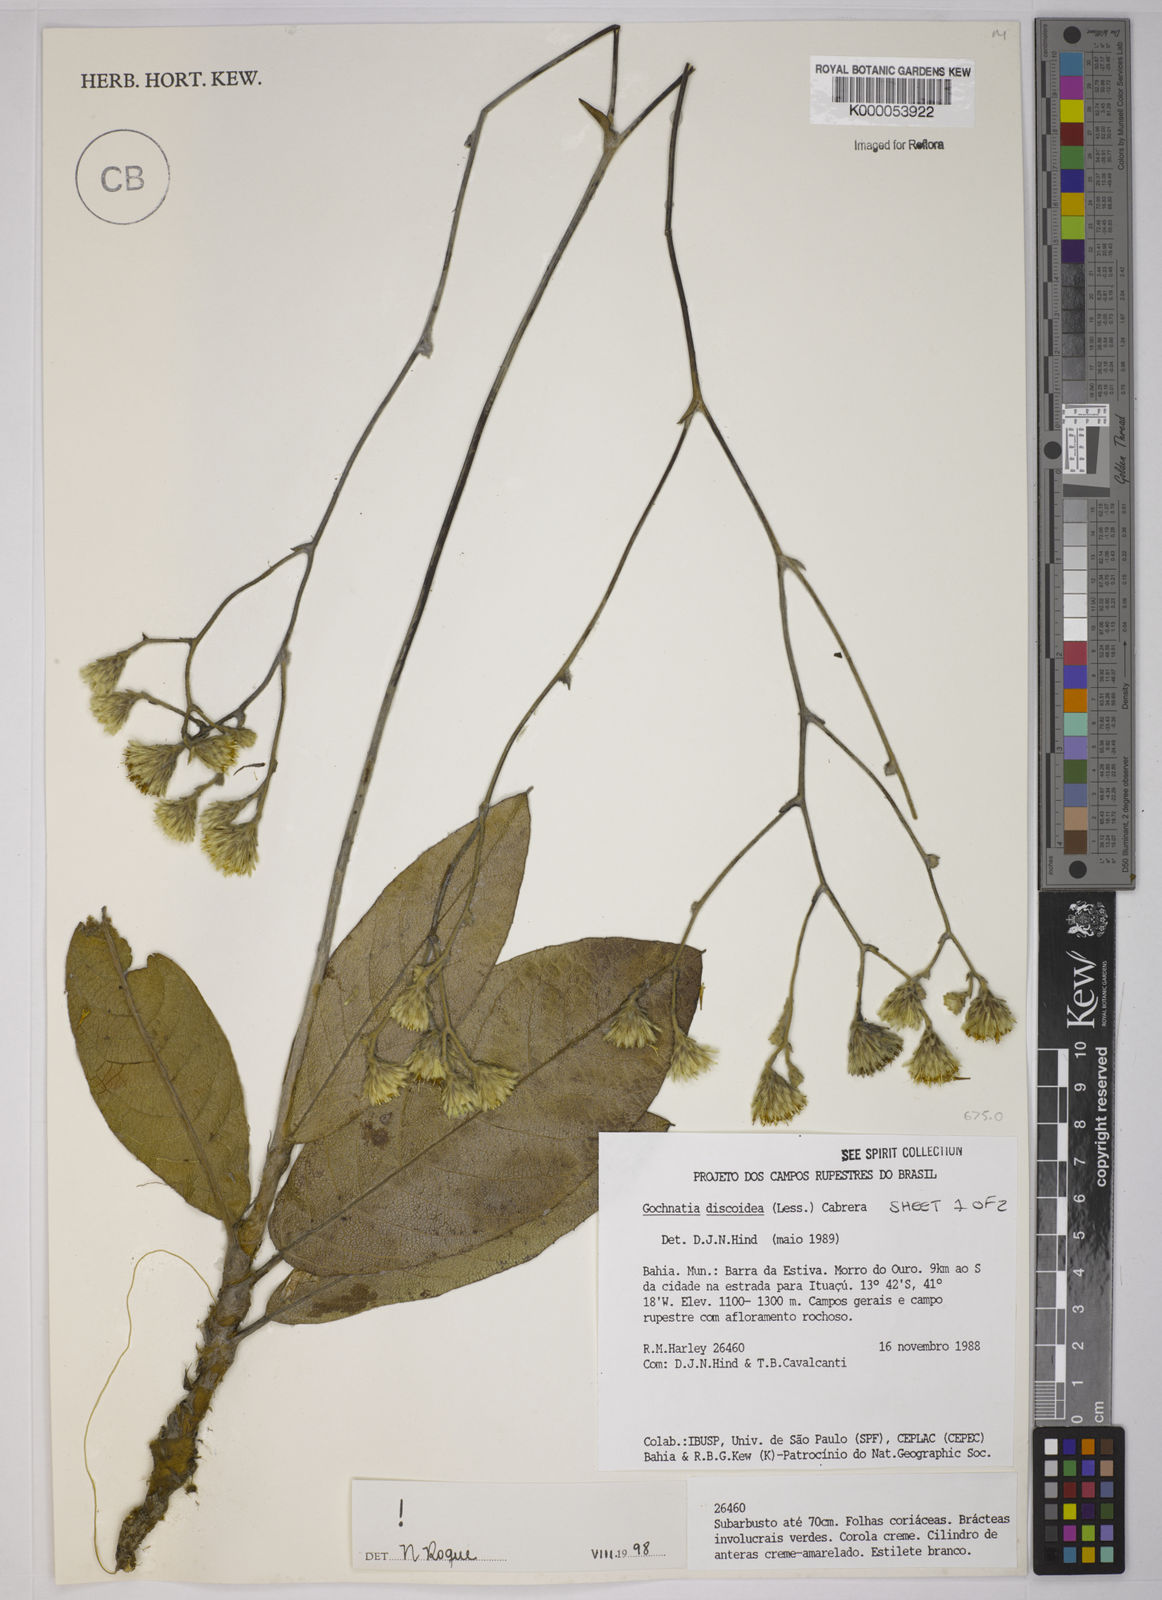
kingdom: Plantae
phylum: Tracheophyta
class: Magnoliopsida
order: Asterales
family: Asteraceae
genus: Richterago
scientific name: Richterago discoidea
